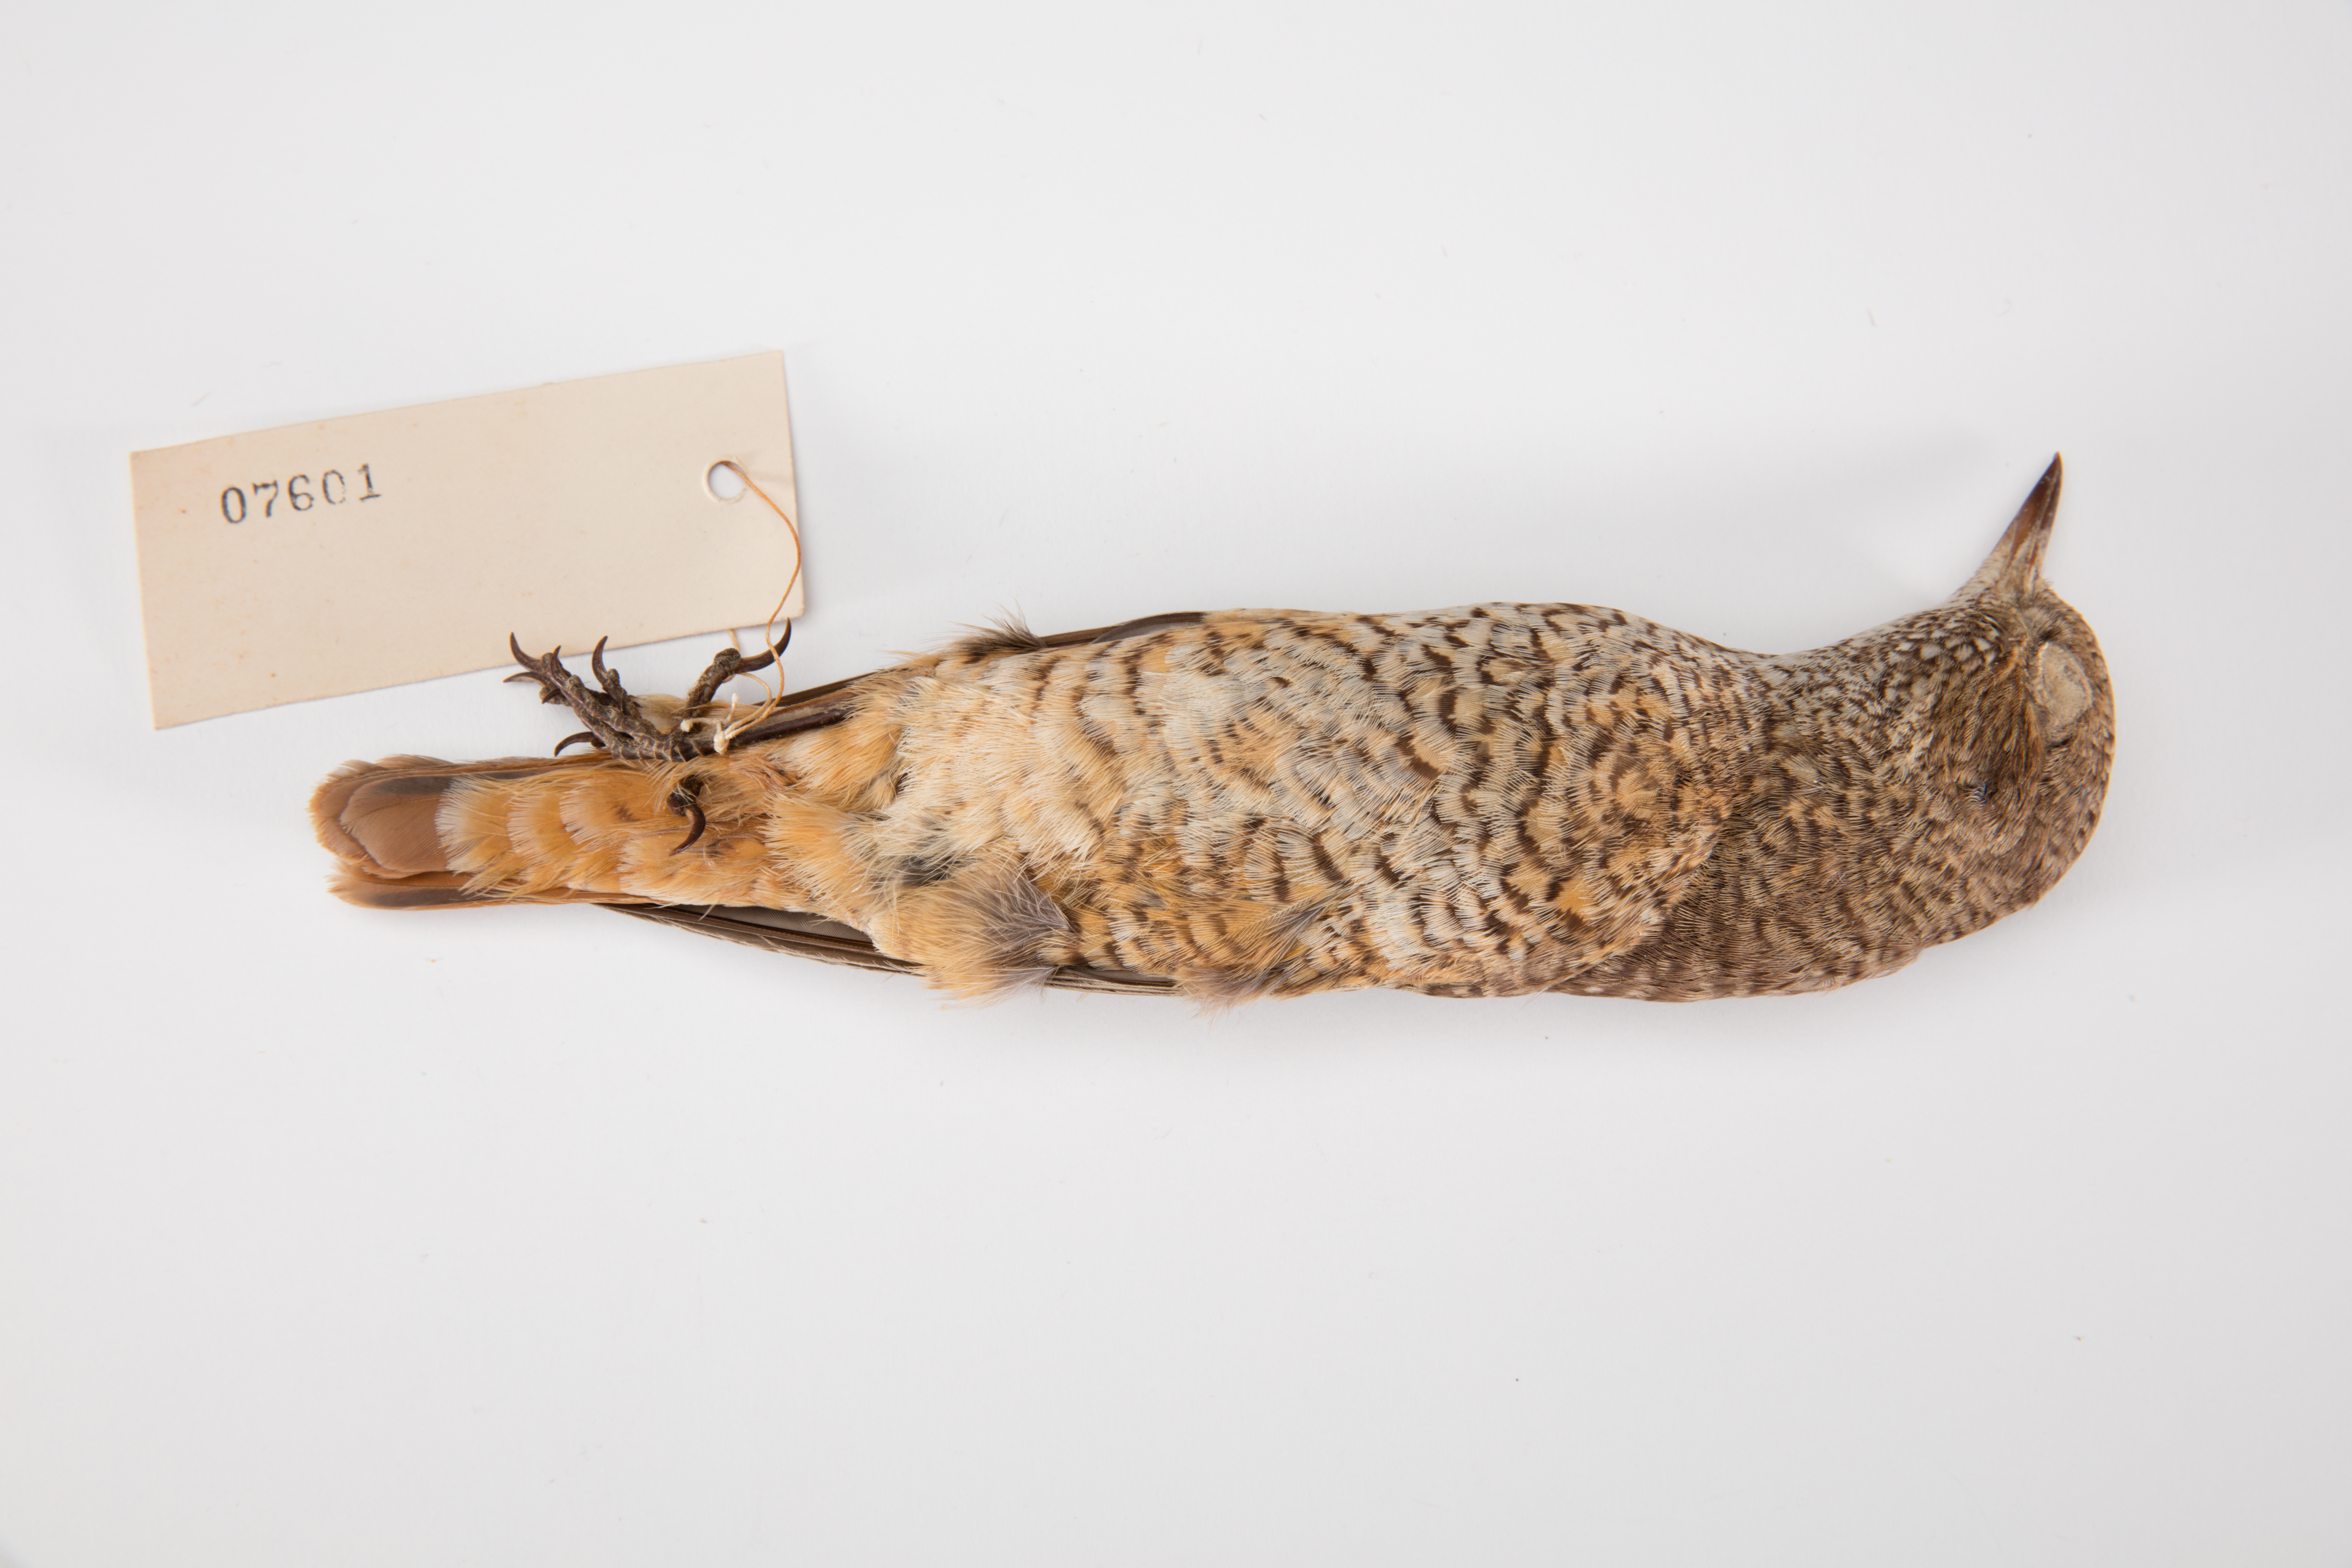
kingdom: Animalia
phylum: Chordata
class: Aves
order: Passeriformes
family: Muscicapidae
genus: Monticola
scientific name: Monticola saxatilis
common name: Rufous-tailed rock thrush
